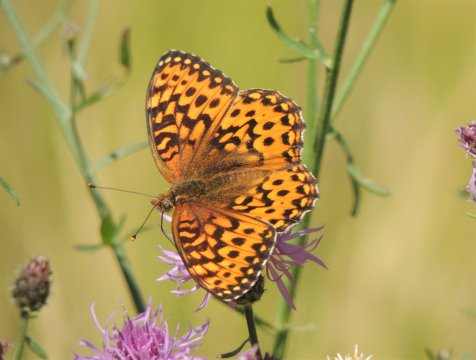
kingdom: Animalia
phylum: Arthropoda
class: Insecta
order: Lepidoptera
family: Nymphalidae
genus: Speyeria
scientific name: Speyeria hydaspe
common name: Hydaspe Fritillary
